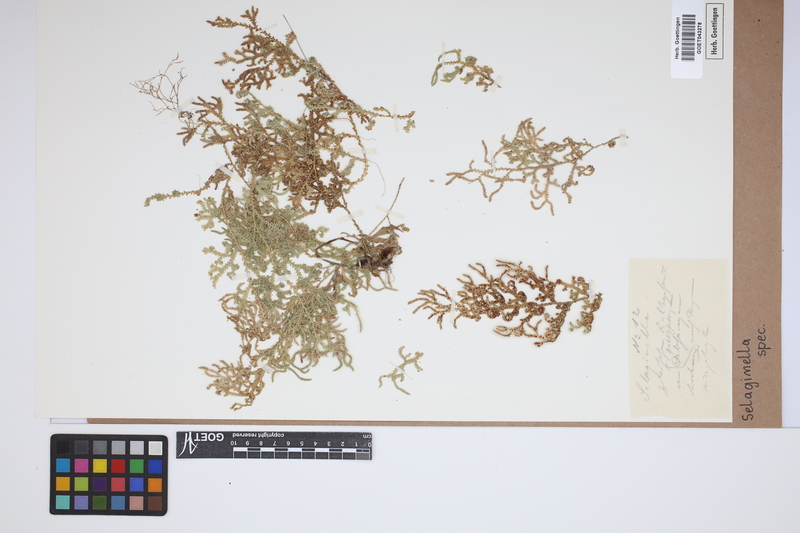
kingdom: Plantae
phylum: Tracheophyta
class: Lycopodiopsida
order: Selaginellales
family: Selaginellaceae
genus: Selaginella
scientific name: Selaginella
